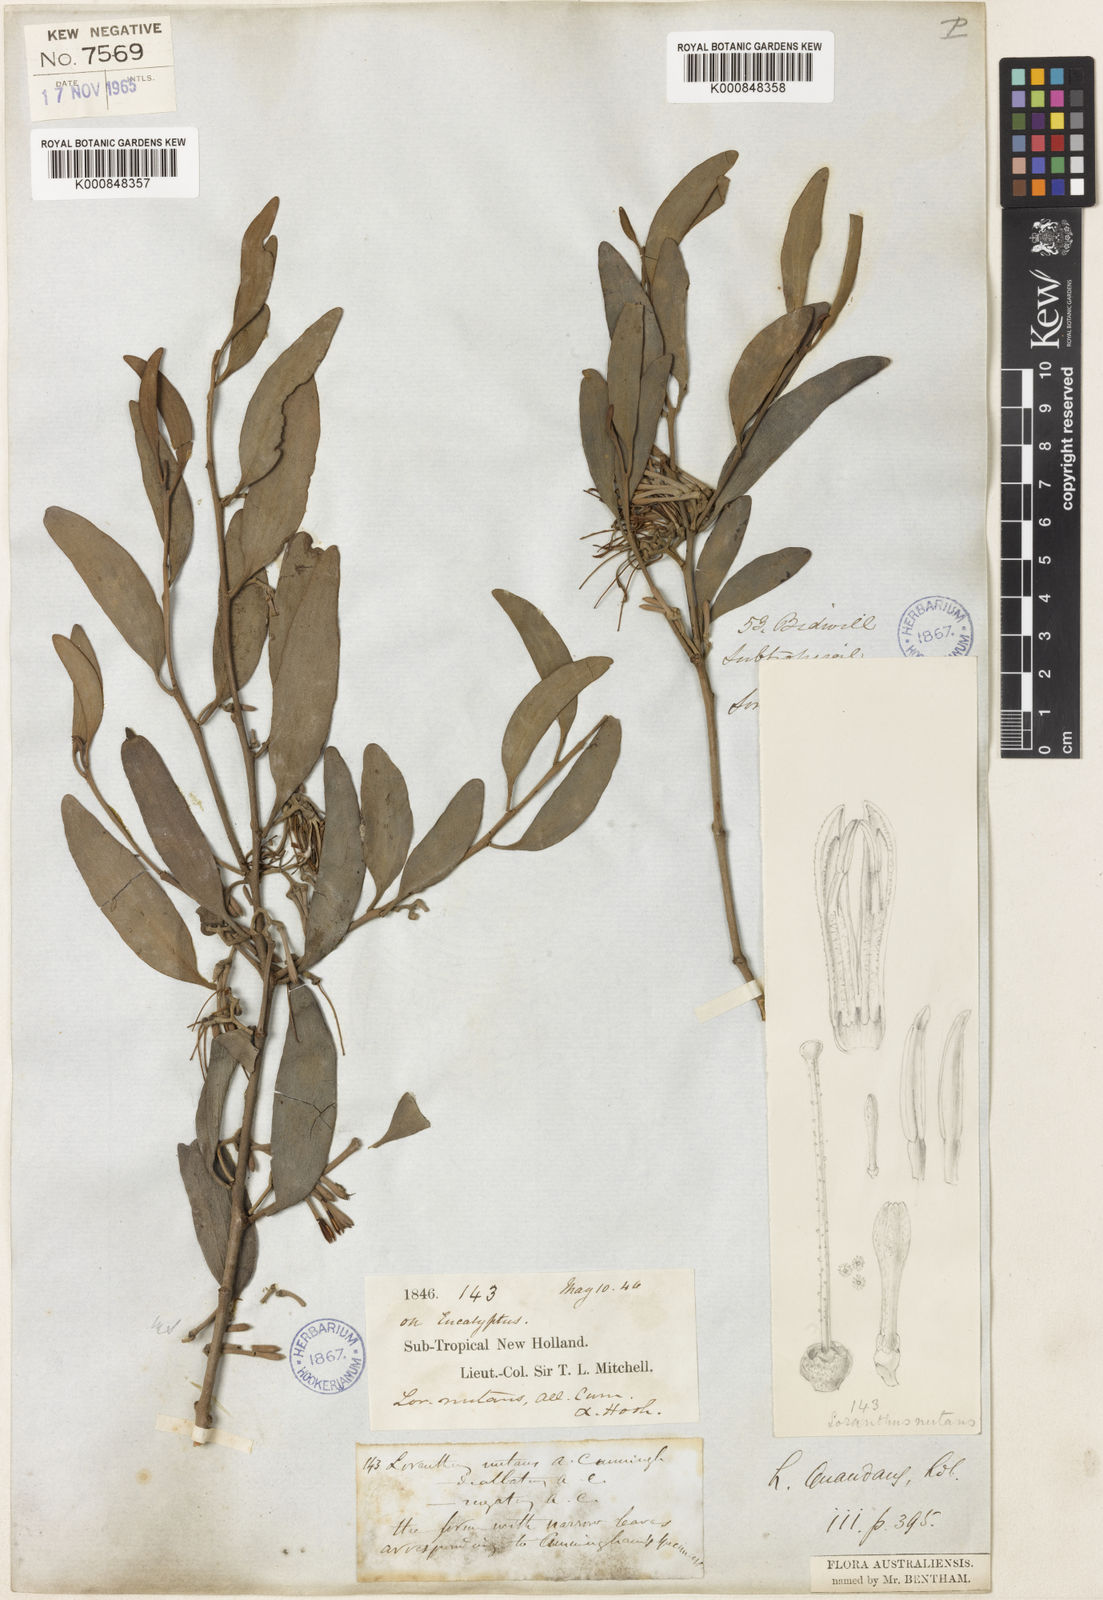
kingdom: Plantae
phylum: Tracheophyta
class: Magnoliopsida
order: Santalales
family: Loranthaceae
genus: Amyema
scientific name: Amyema quandang
